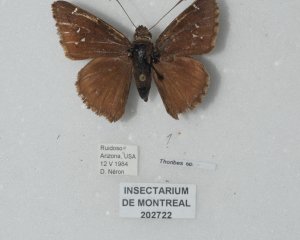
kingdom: Animalia
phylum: Arthropoda
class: Insecta
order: Lepidoptera
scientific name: Lepidoptera
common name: Butterflies
